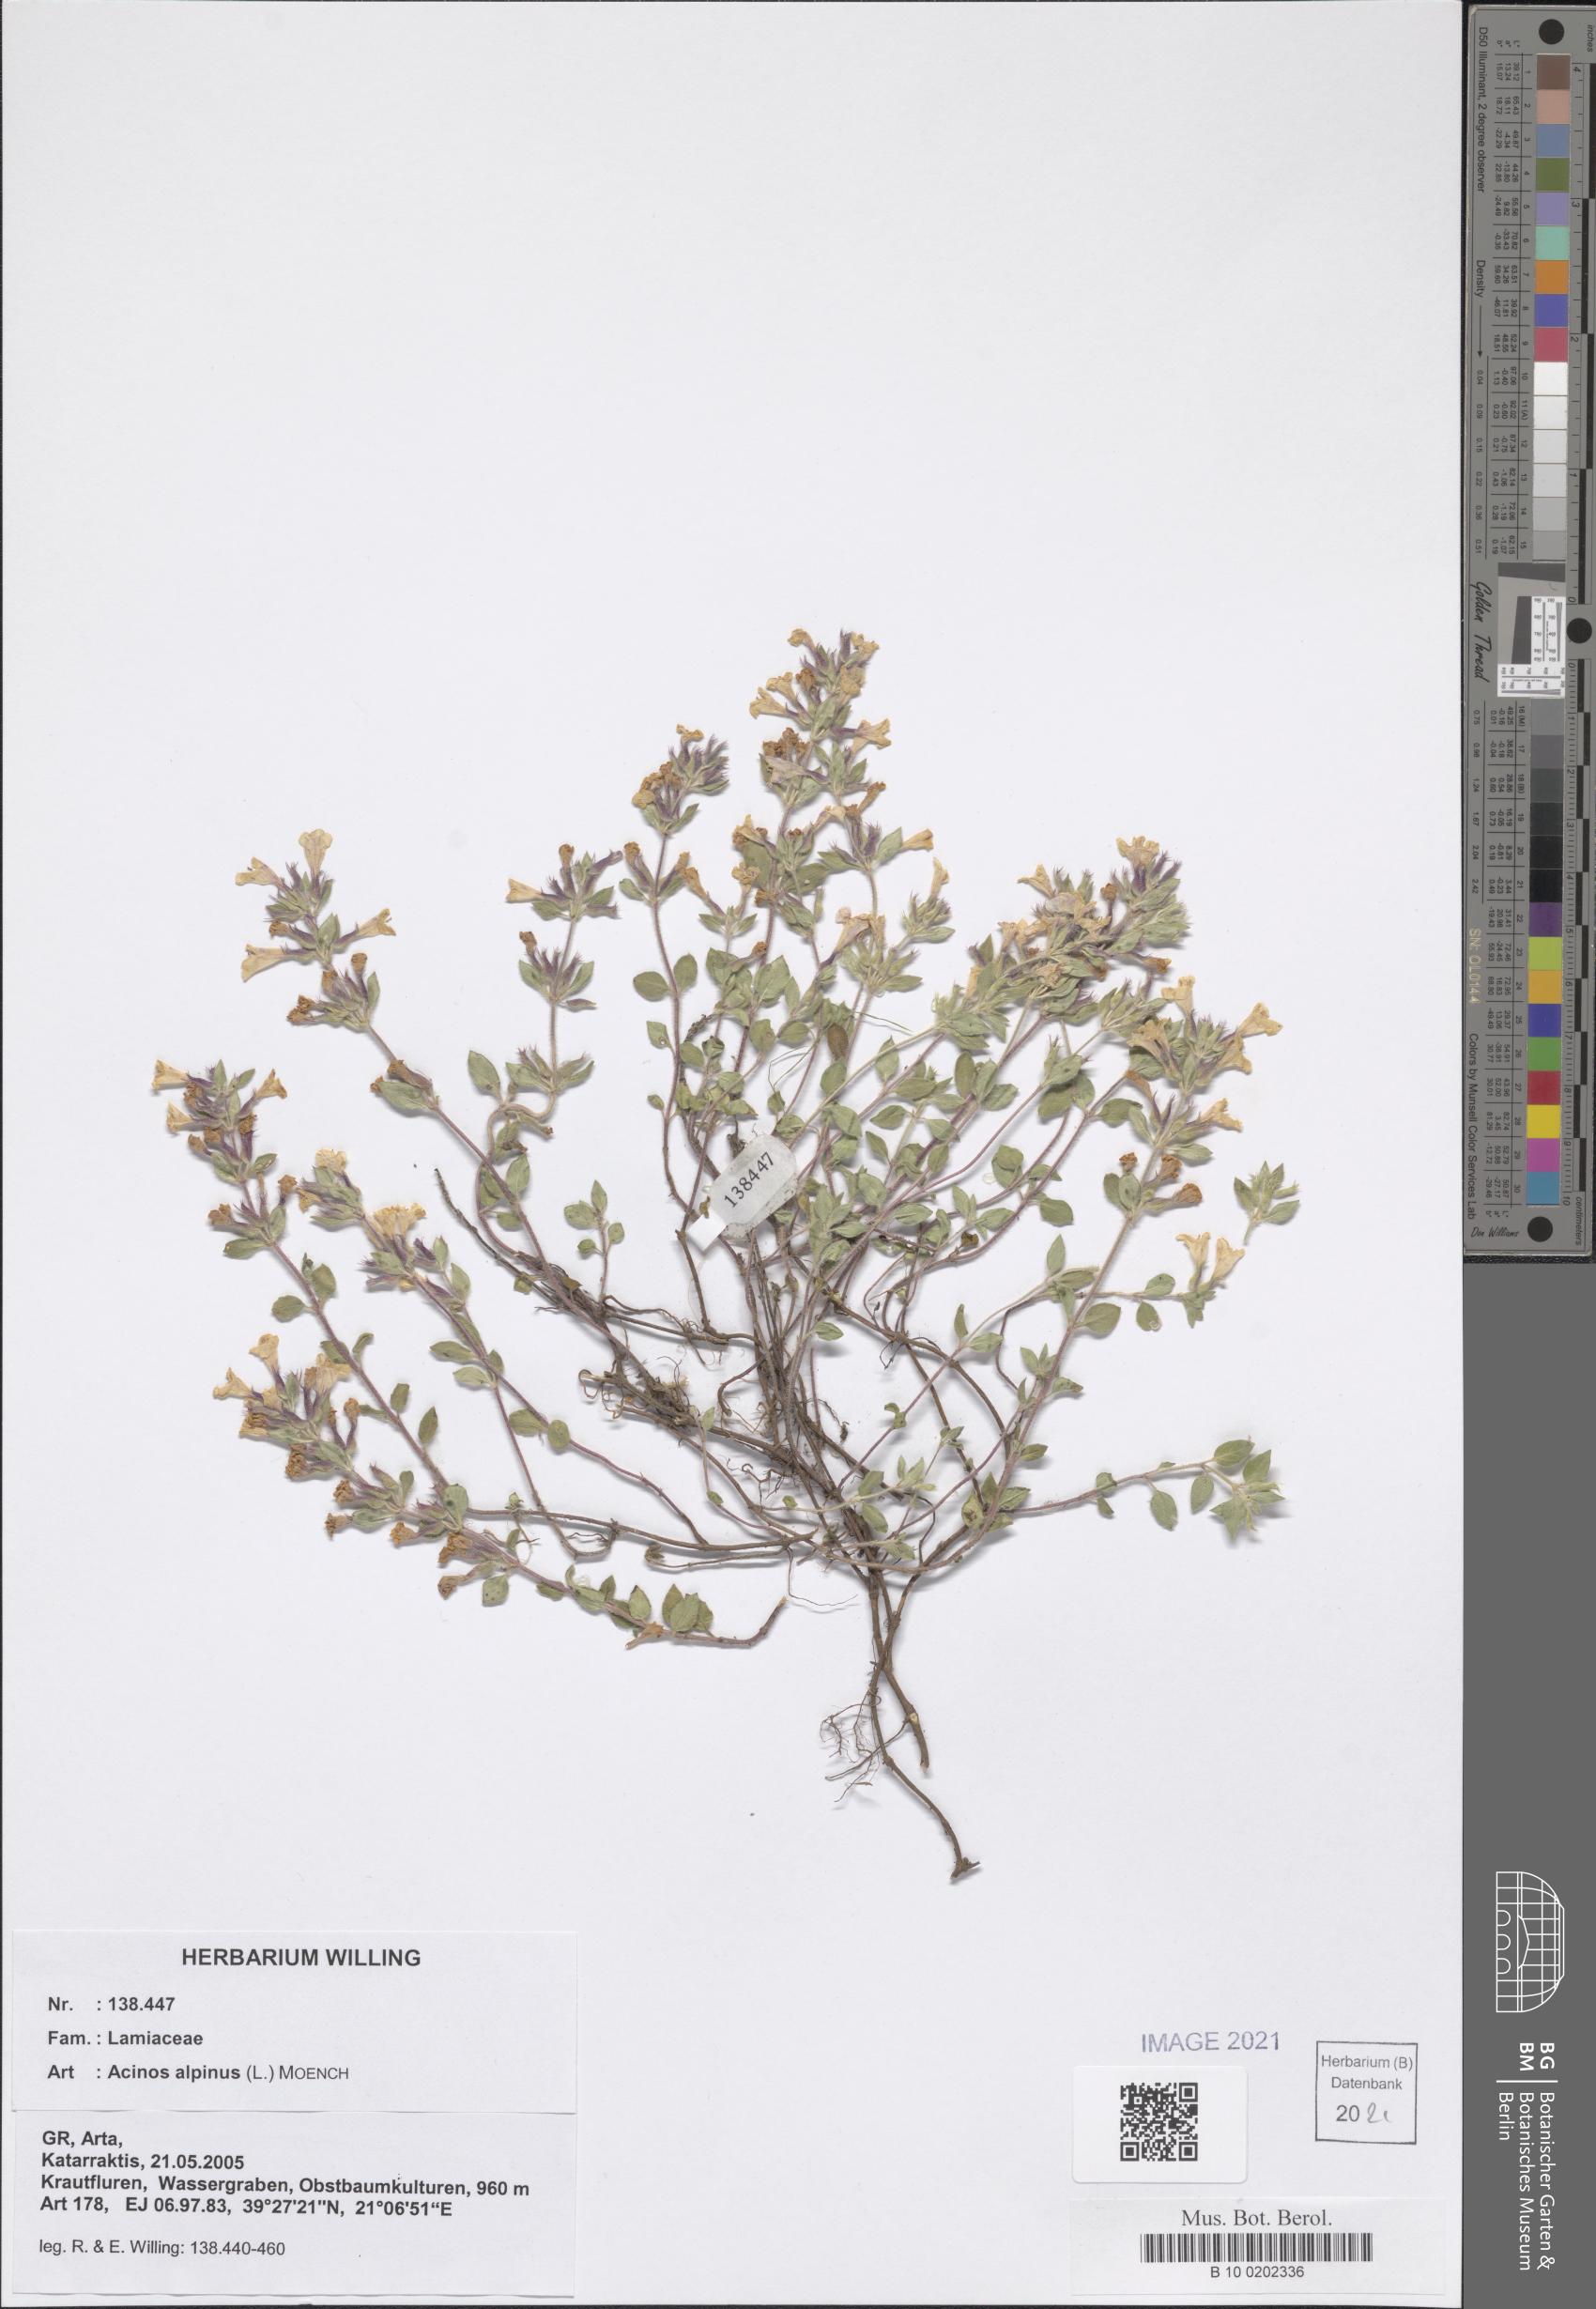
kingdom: Plantae
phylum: Tracheophyta
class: Magnoliopsida
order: Lamiales
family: Lamiaceae
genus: Clinopodium
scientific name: Clinopodium alpinum
